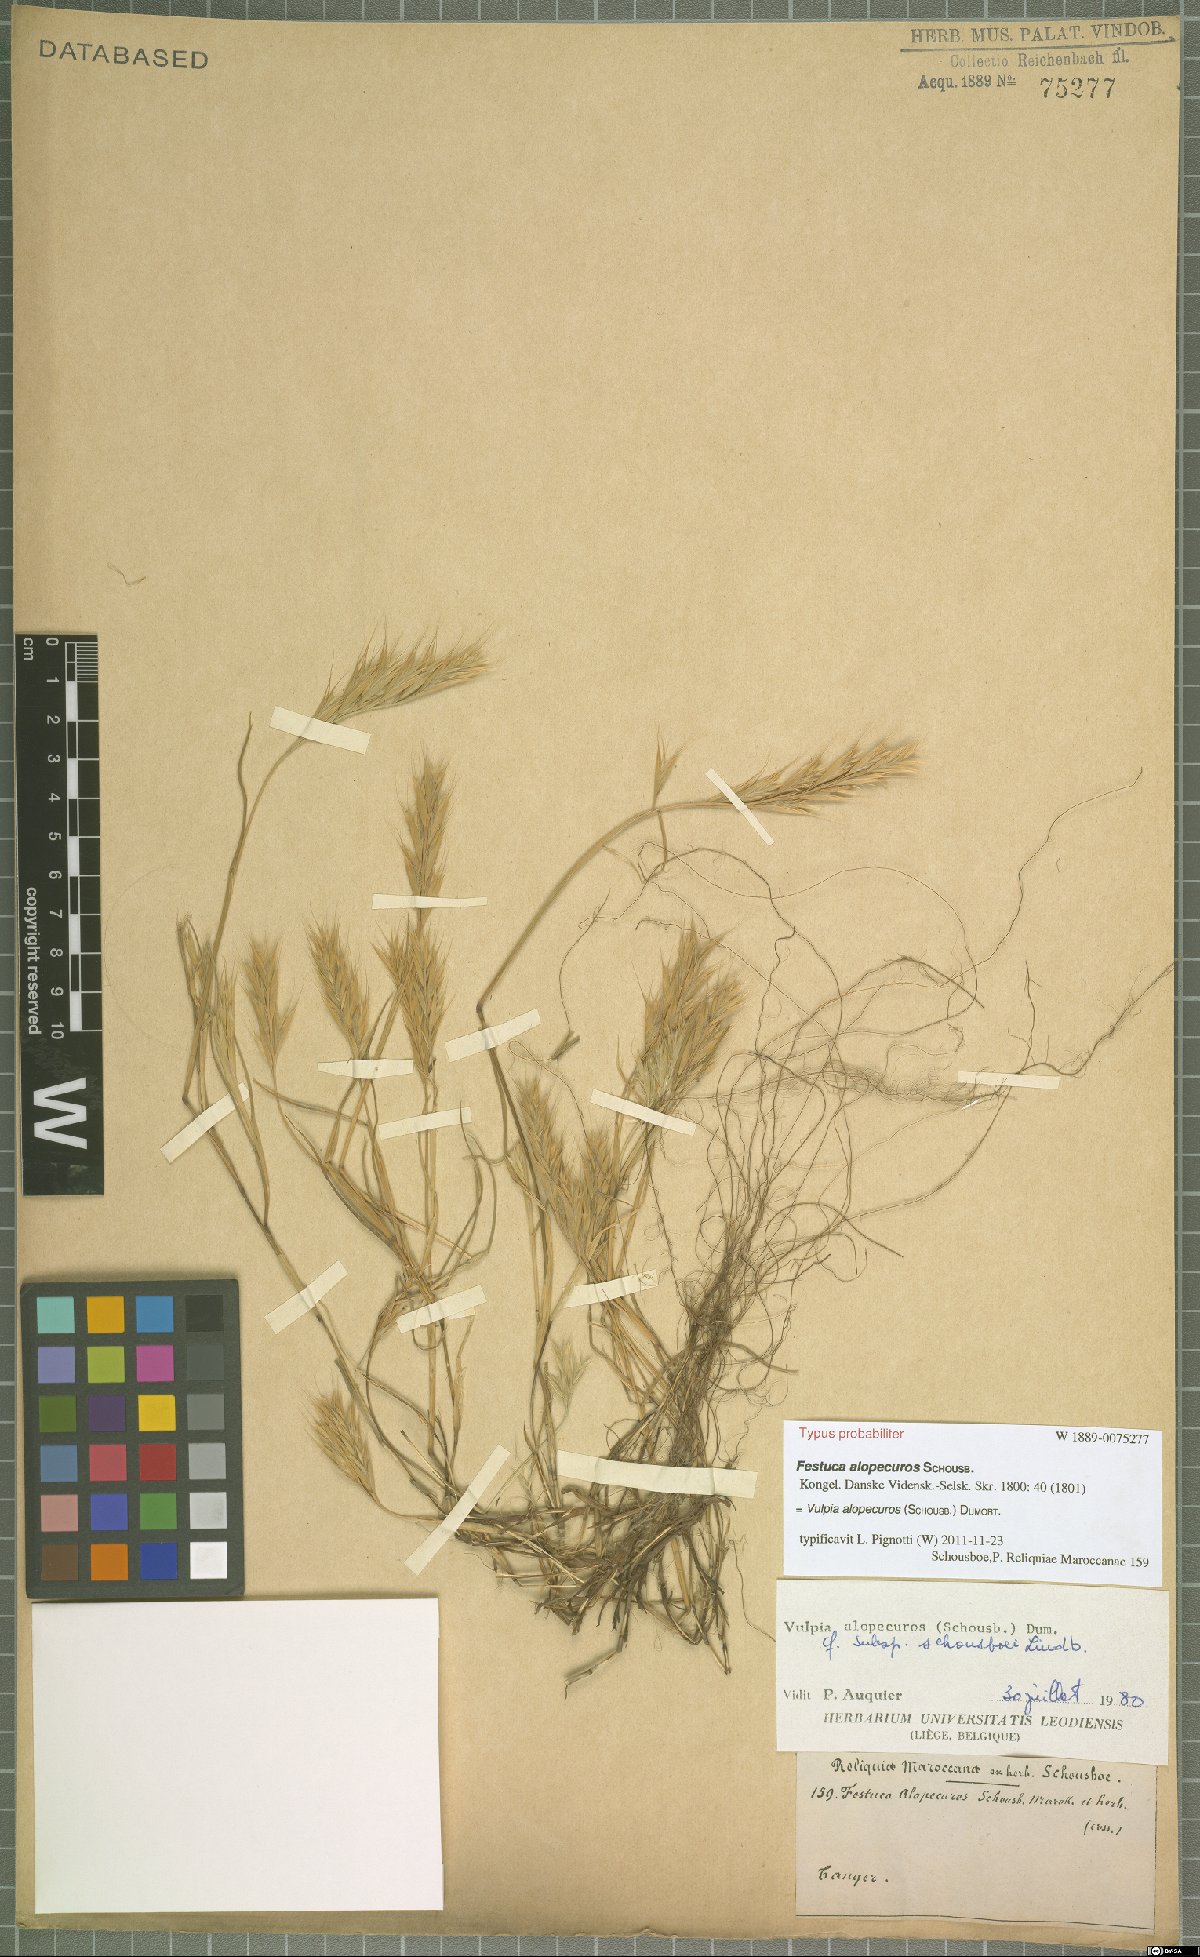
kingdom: Plantae
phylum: Tracheophyta
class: Liliopsida
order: Poales
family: Poaceae
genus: Festuca
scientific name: Festuca alopecuros
